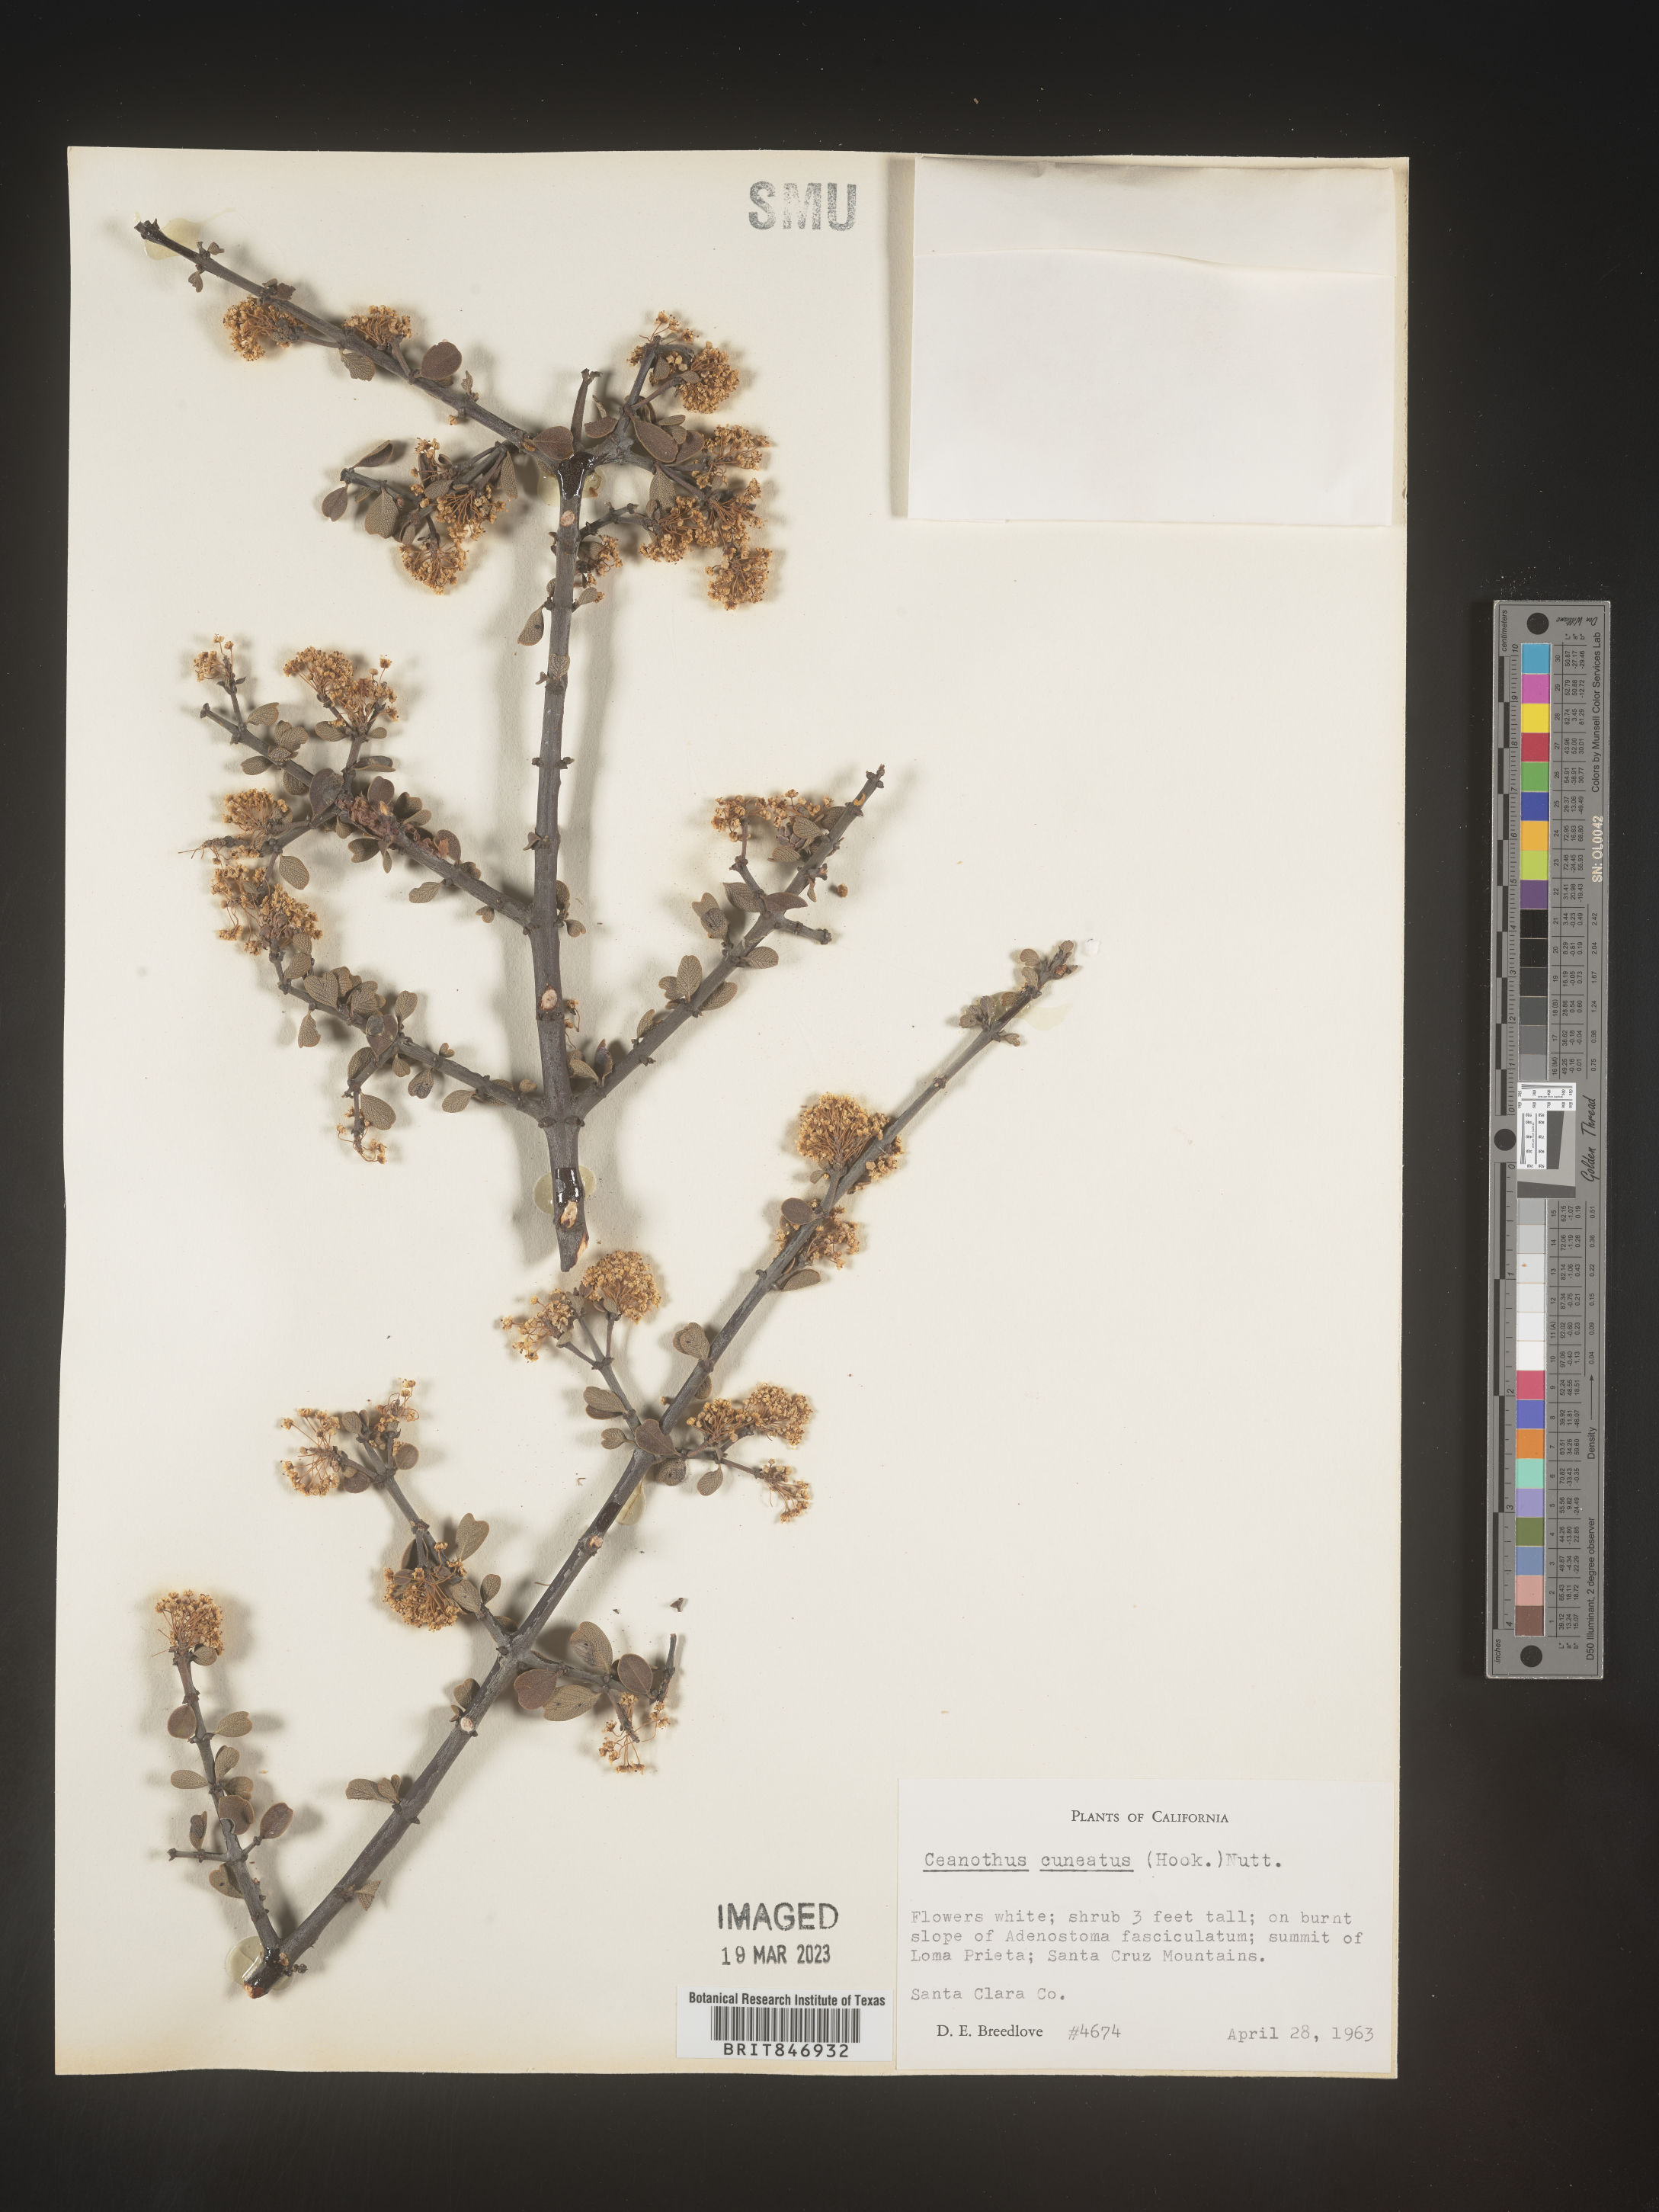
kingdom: Plantae
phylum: Tracheophyta
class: Magnoliopsida
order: Rosales
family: Rhamnaceae
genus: Ceanothus
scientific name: Ceanothus cuneatus
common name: Cuneate ceanothus
